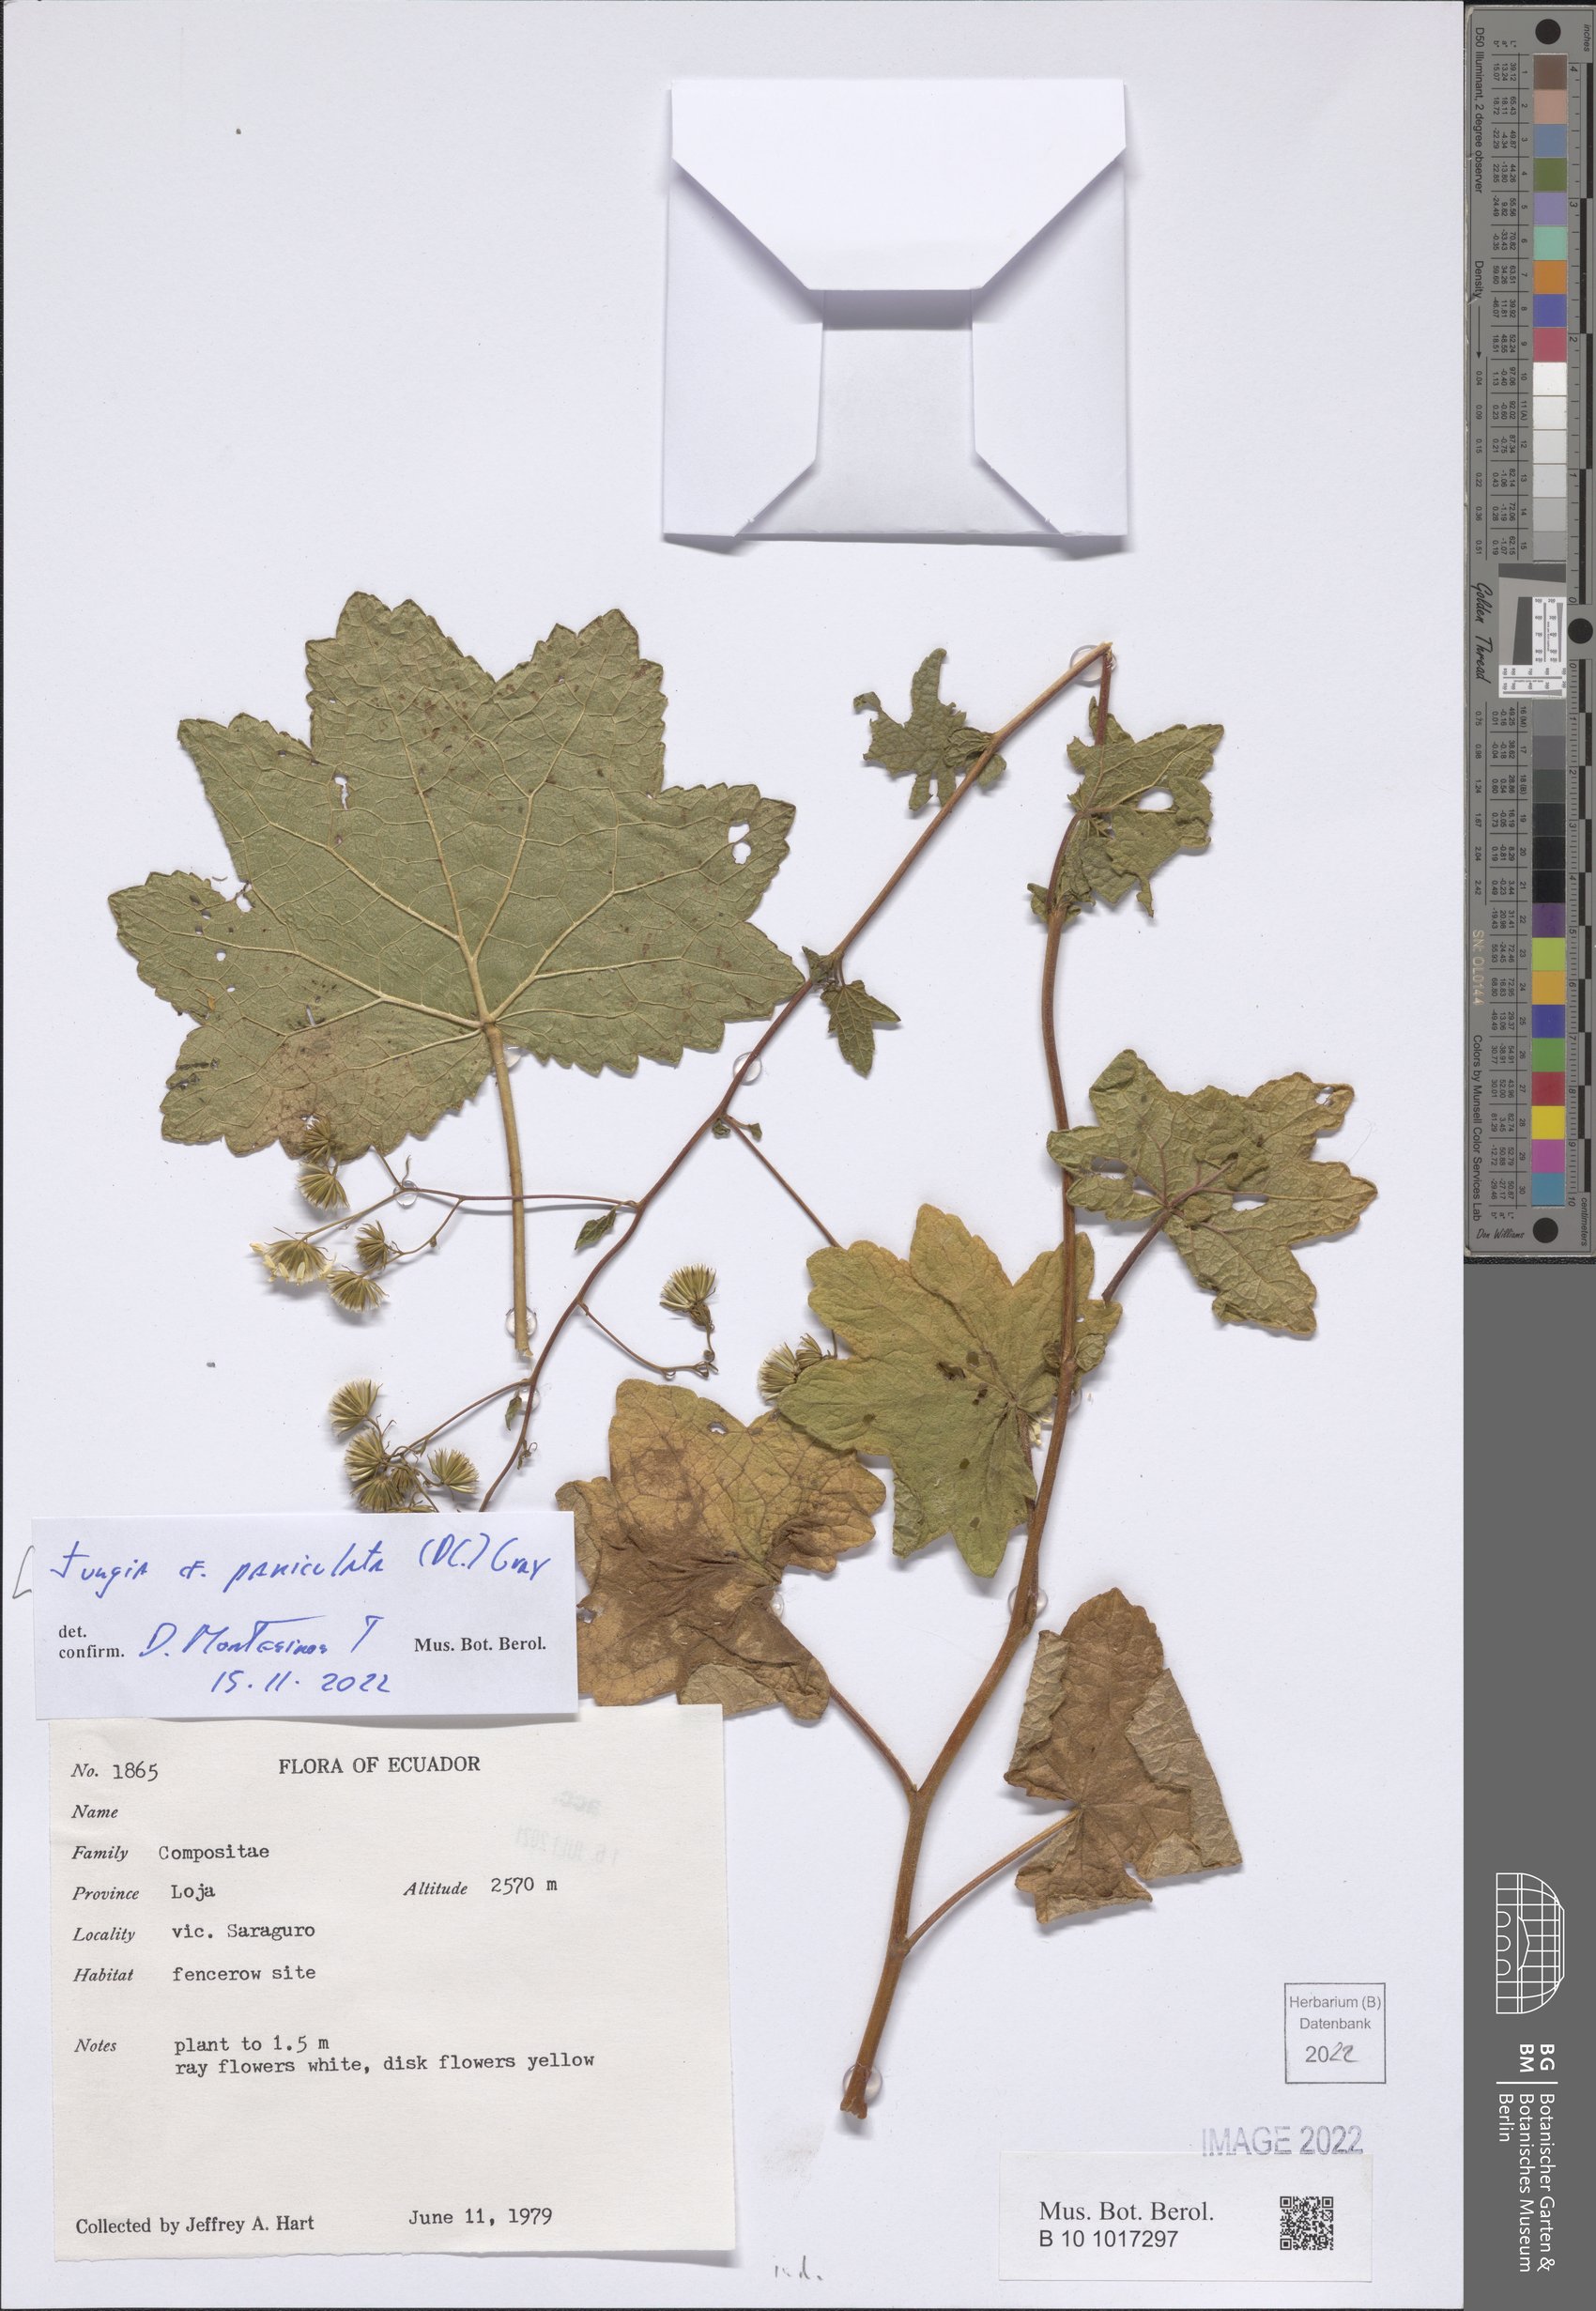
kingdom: Plantae
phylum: Tracheophyta
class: Magnoliopsida
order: Asterales
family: Asteraceae
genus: Jungia
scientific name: Jungia paniculata
